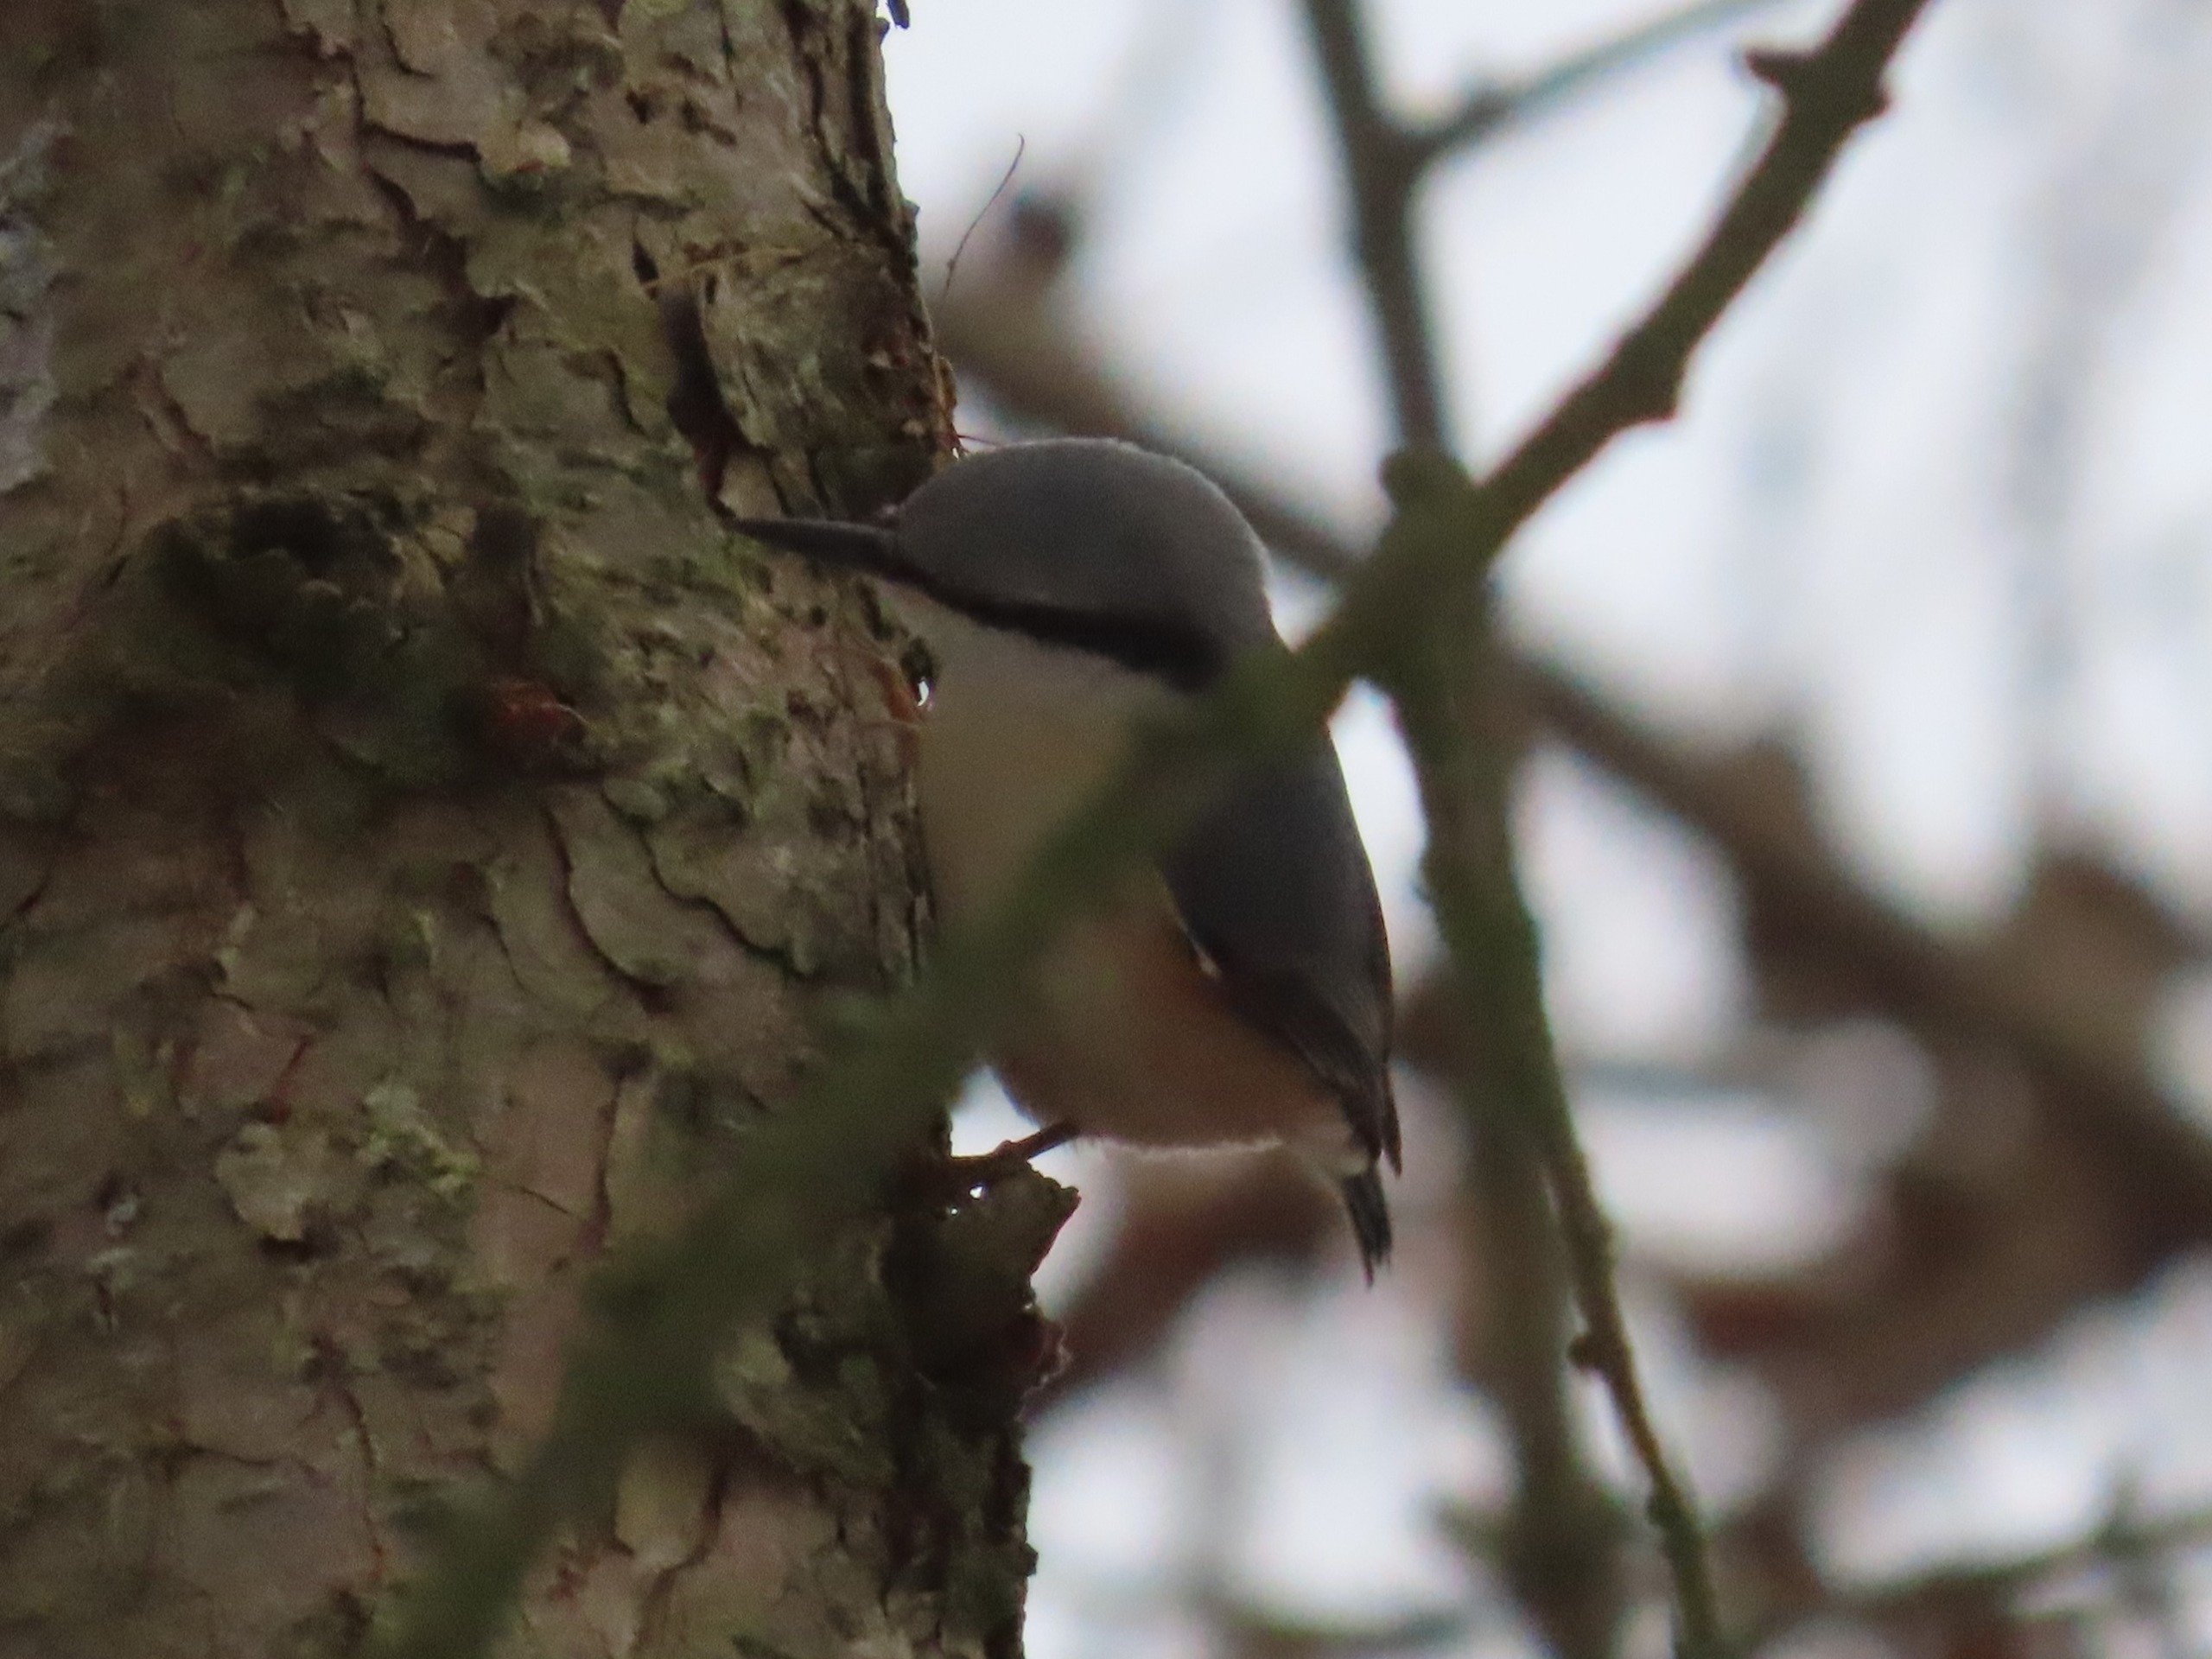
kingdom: Animalia
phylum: Chordata
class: Aves
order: Passeriformes
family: Sittidae
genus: Sitta
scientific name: Sitta europaea
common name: Spætmejse
